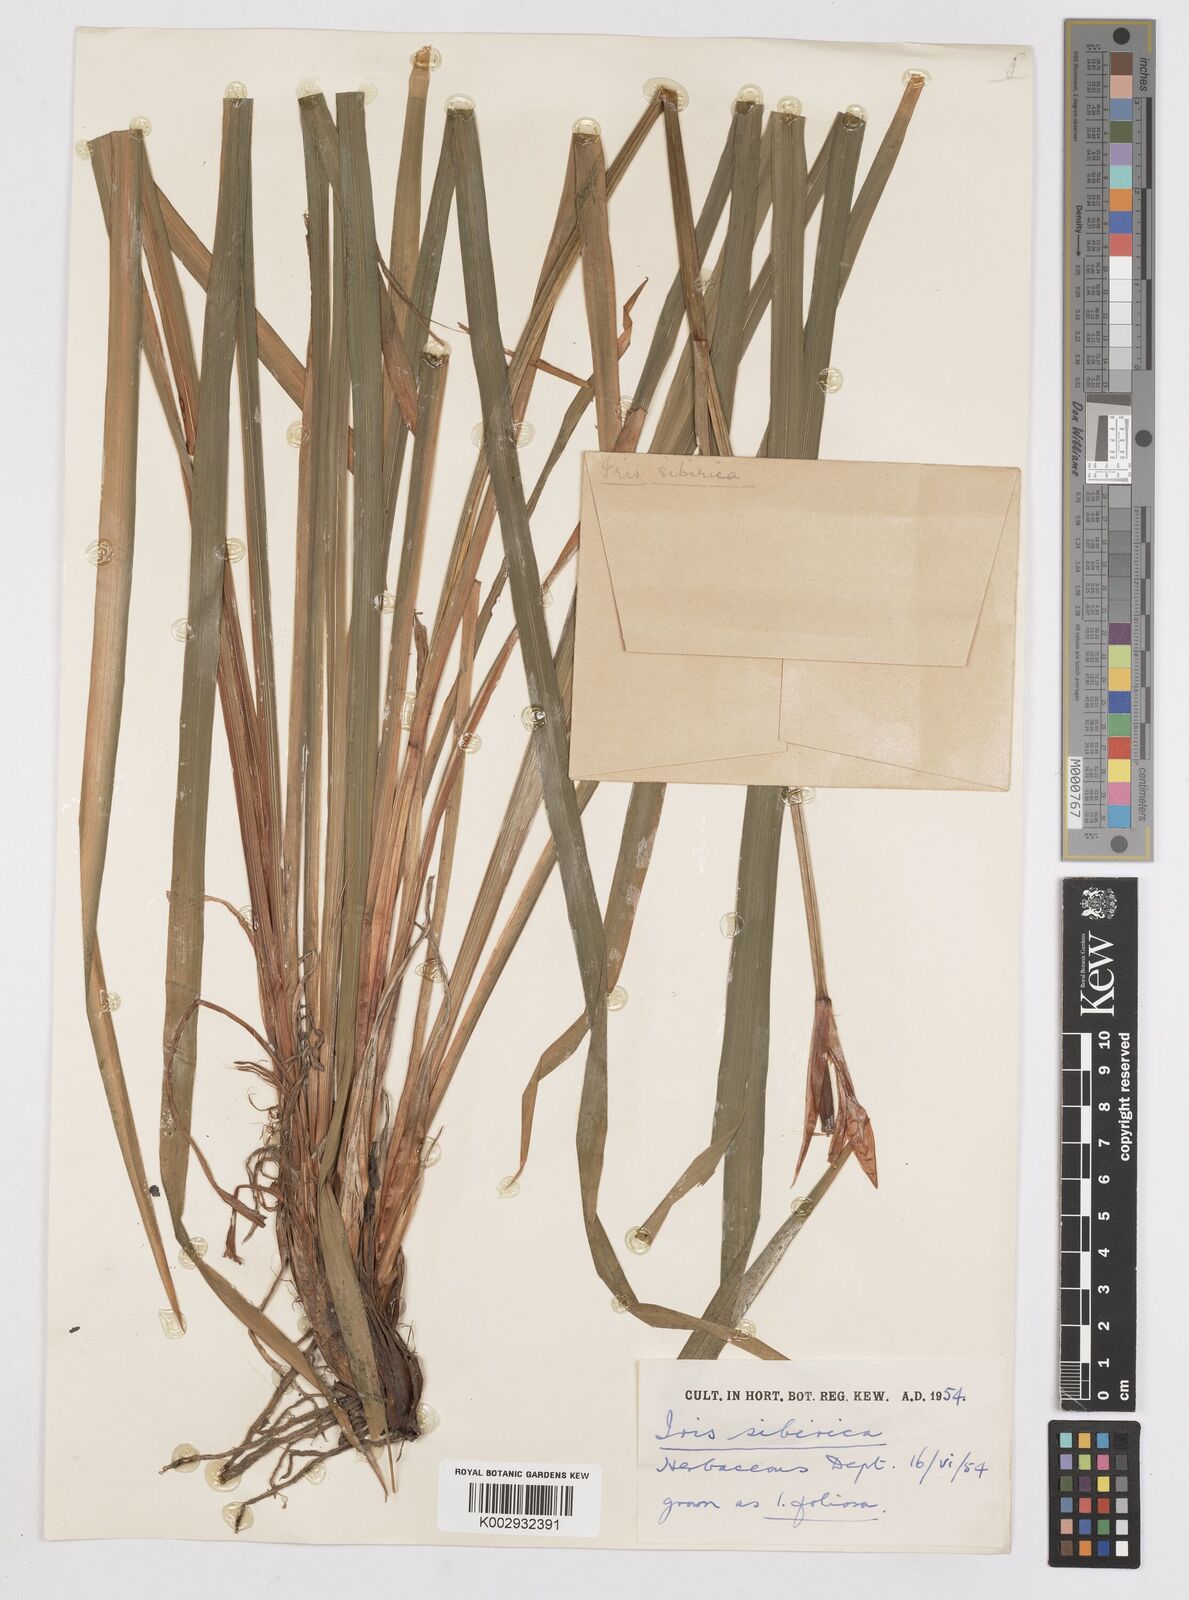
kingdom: Plantae
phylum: Tracheophyta
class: Liliopsida
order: Asparagales
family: Iridaceae
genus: Iris
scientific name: Iris sibirica
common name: Siberian iris
